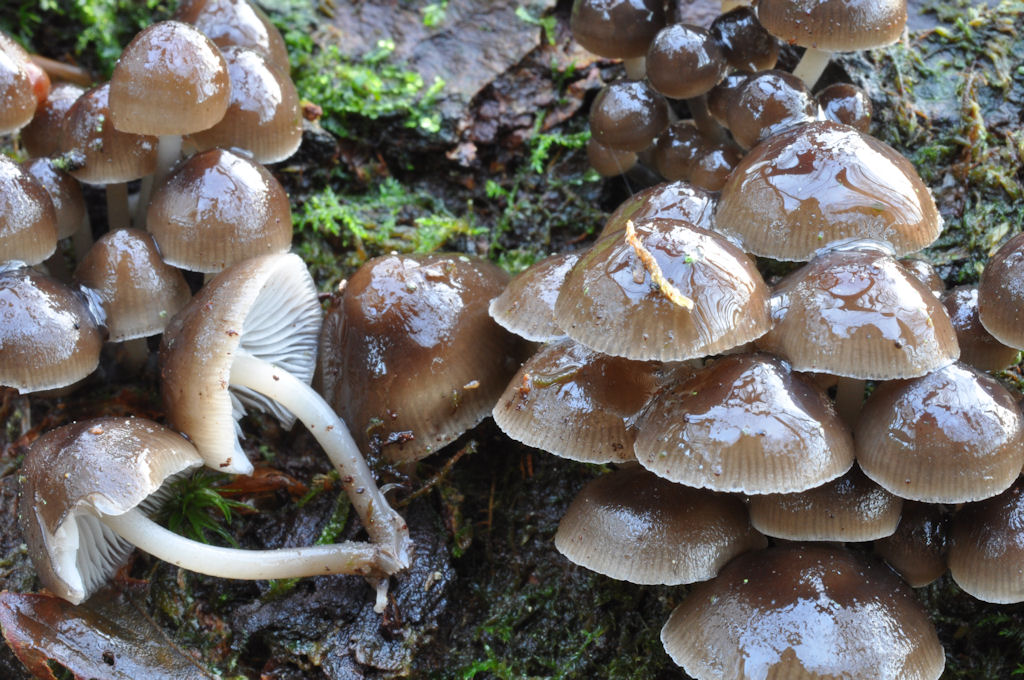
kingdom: Fungi
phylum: Basidiomycota
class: Agaricomycetes
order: Agaricales
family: Mycenaceae
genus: Mycena
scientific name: Mycena tintinnabulum
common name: vinter-huesvamp
